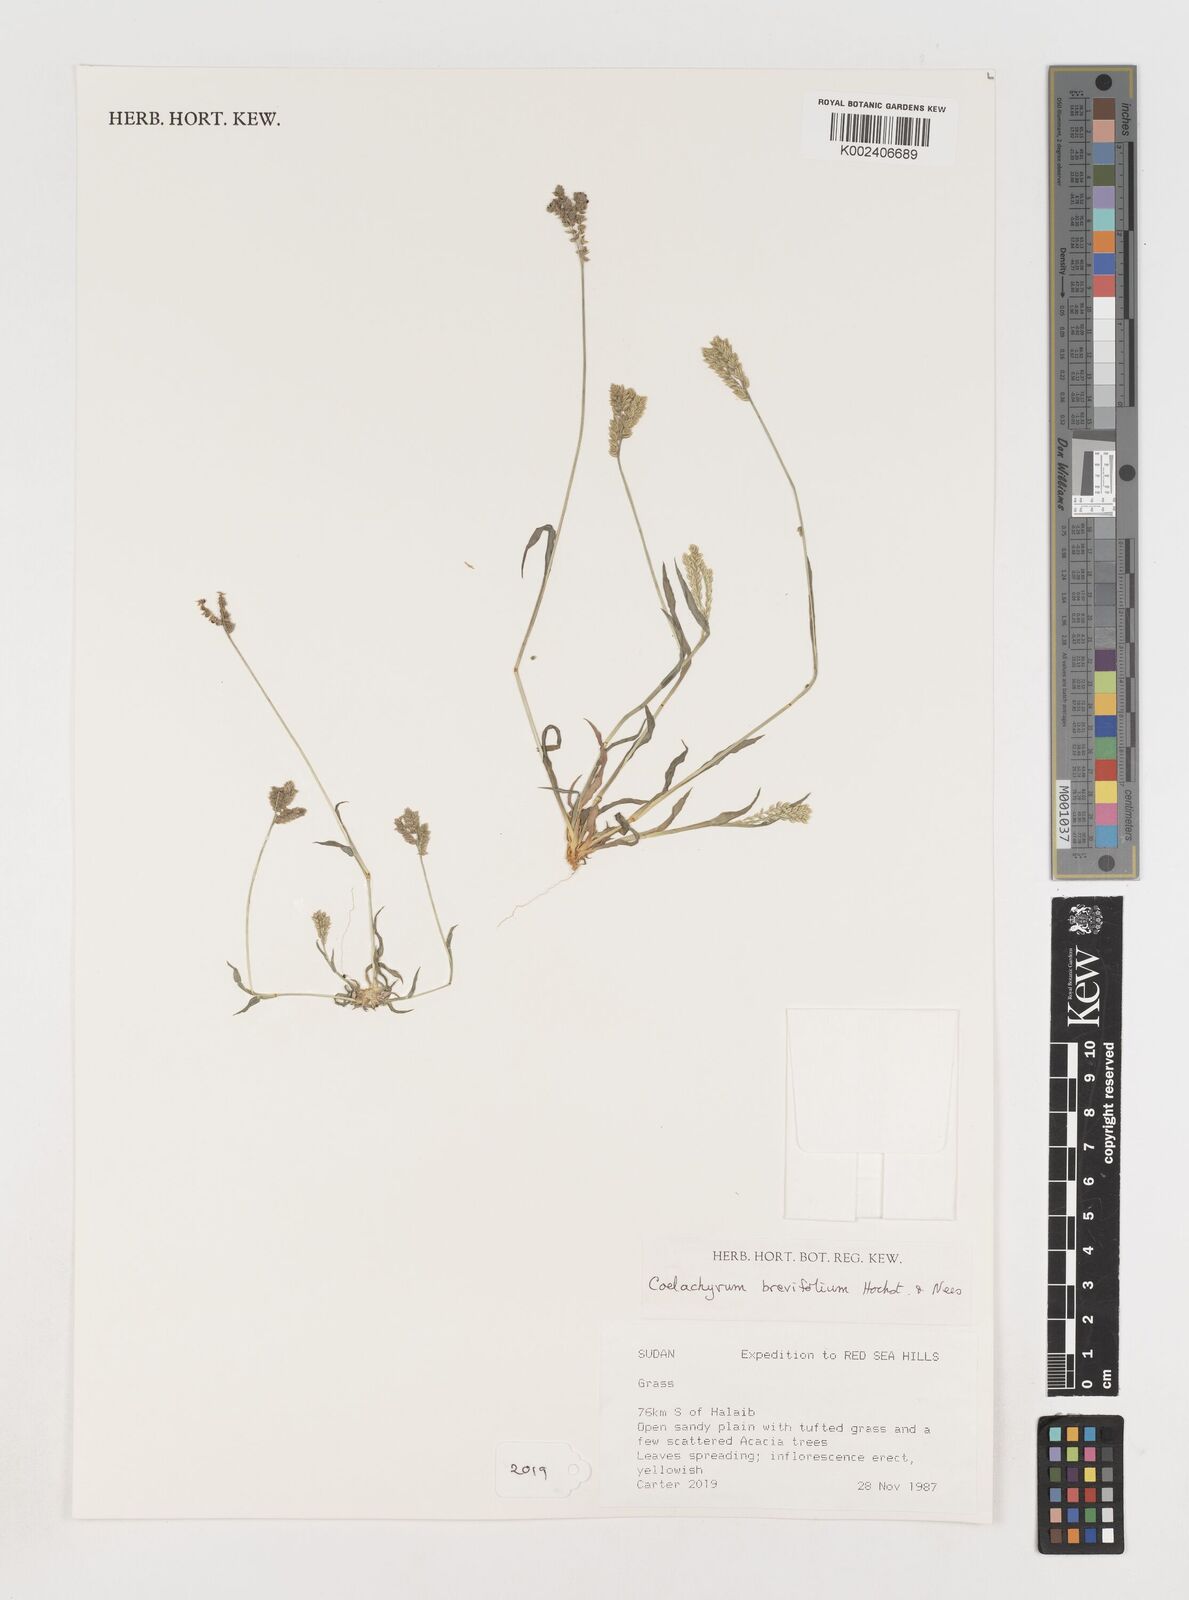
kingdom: Plantae
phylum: Tracheophyta
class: Liliopsida
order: Poales
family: Poaceae
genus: Coelachyrum
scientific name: Coelachyrum brevifolium
